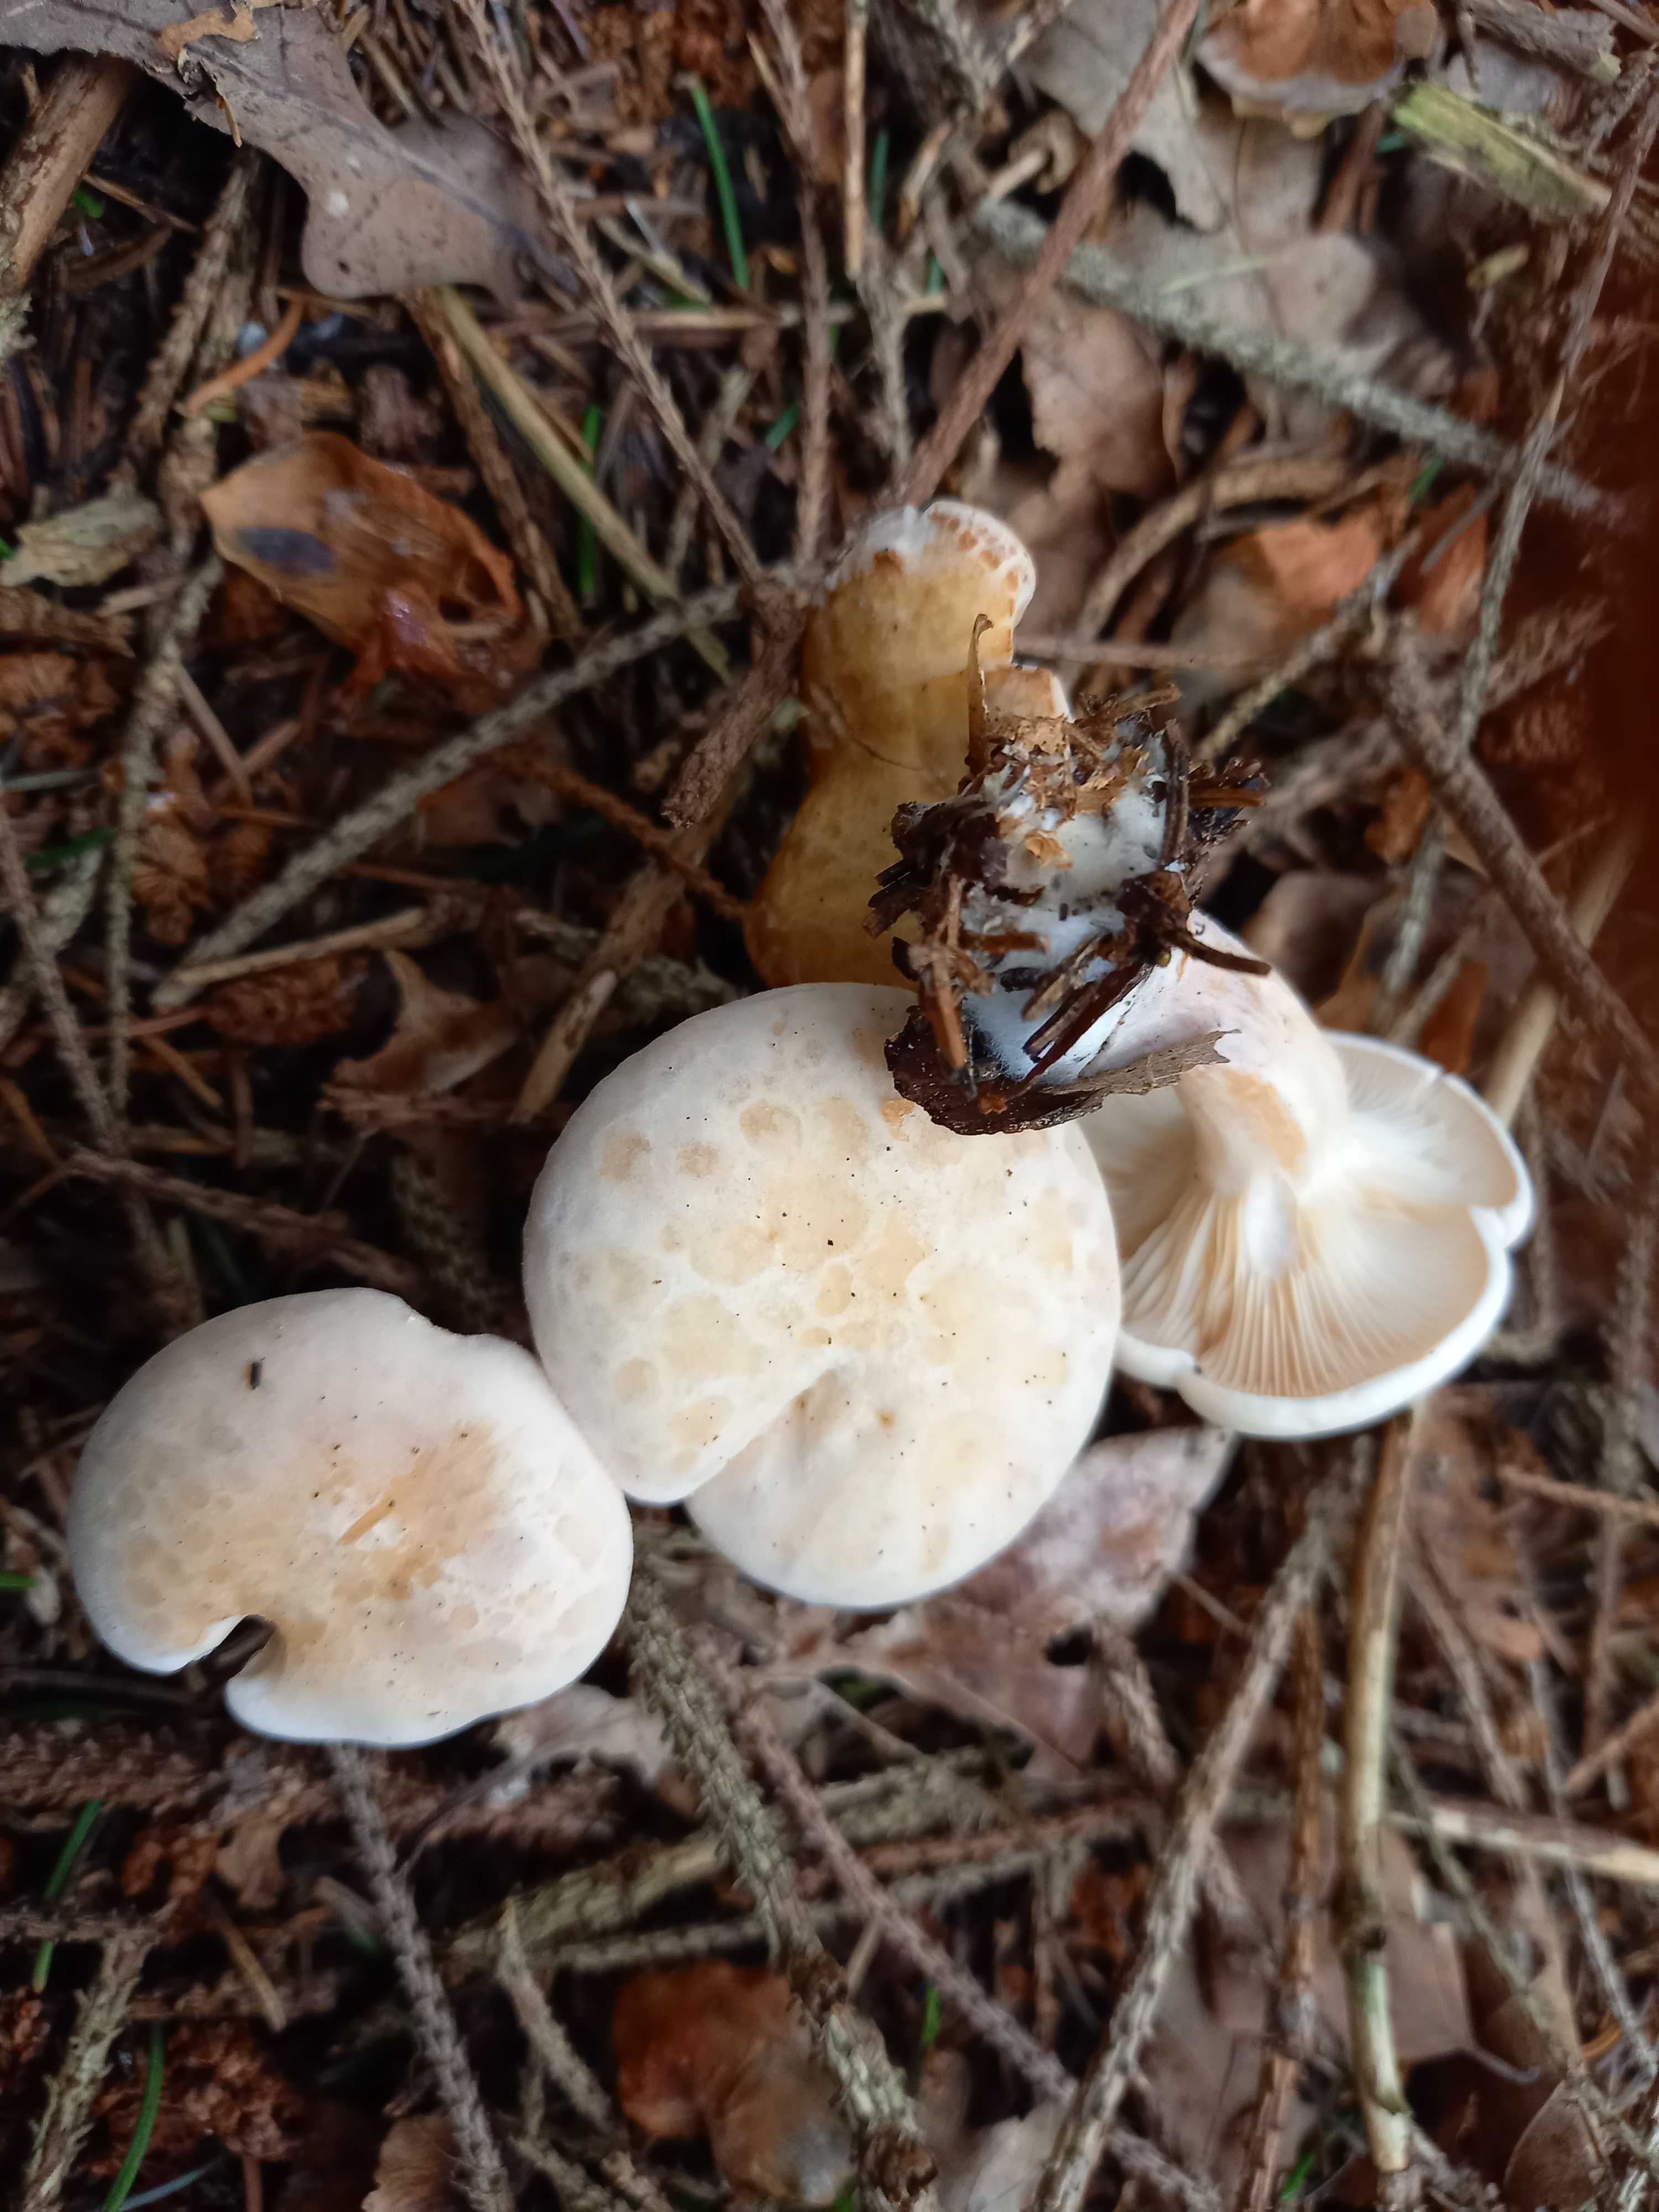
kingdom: Fungi
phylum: Basidiomycota
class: Agaricomycetes
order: Agaricales
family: Tricholomataceae
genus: Paralepista
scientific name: Paralepista gilva
